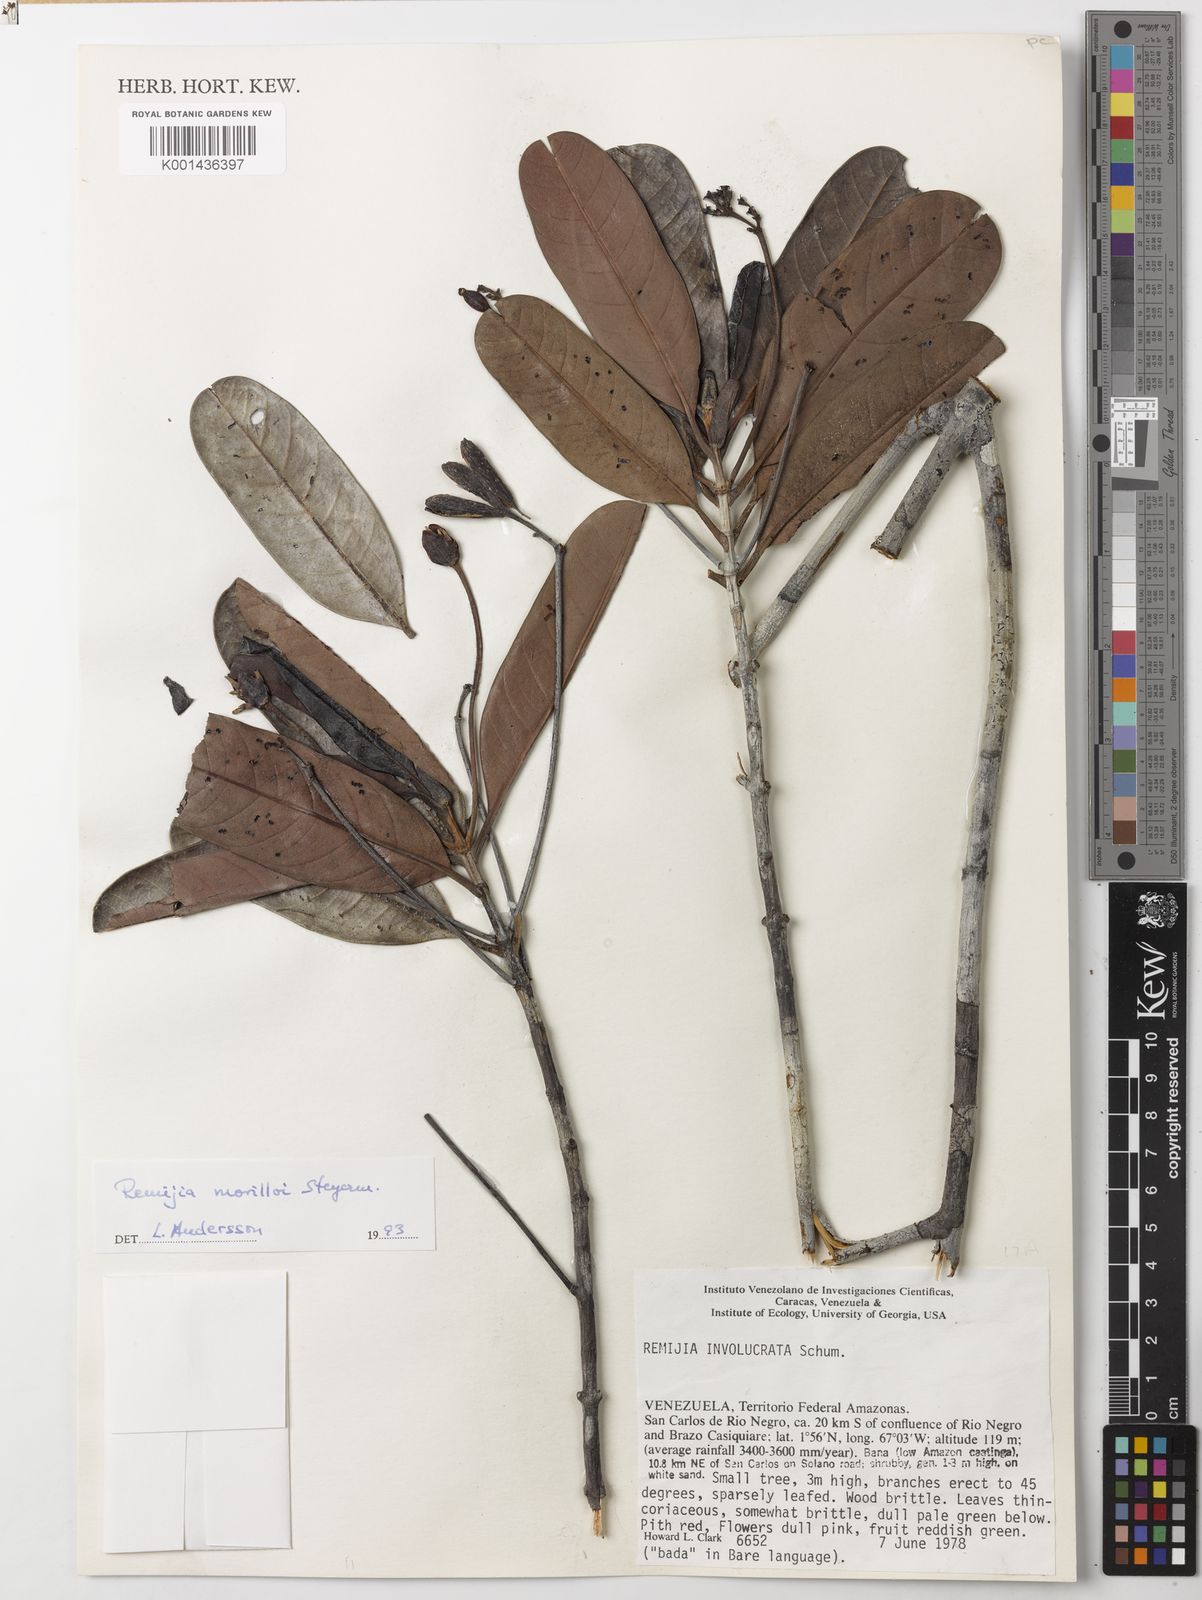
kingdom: Plantae
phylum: Tracheophyta
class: Magnoliopsida
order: Gentianales
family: Rubiaceae
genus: Remijia
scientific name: Remijia morilloi
